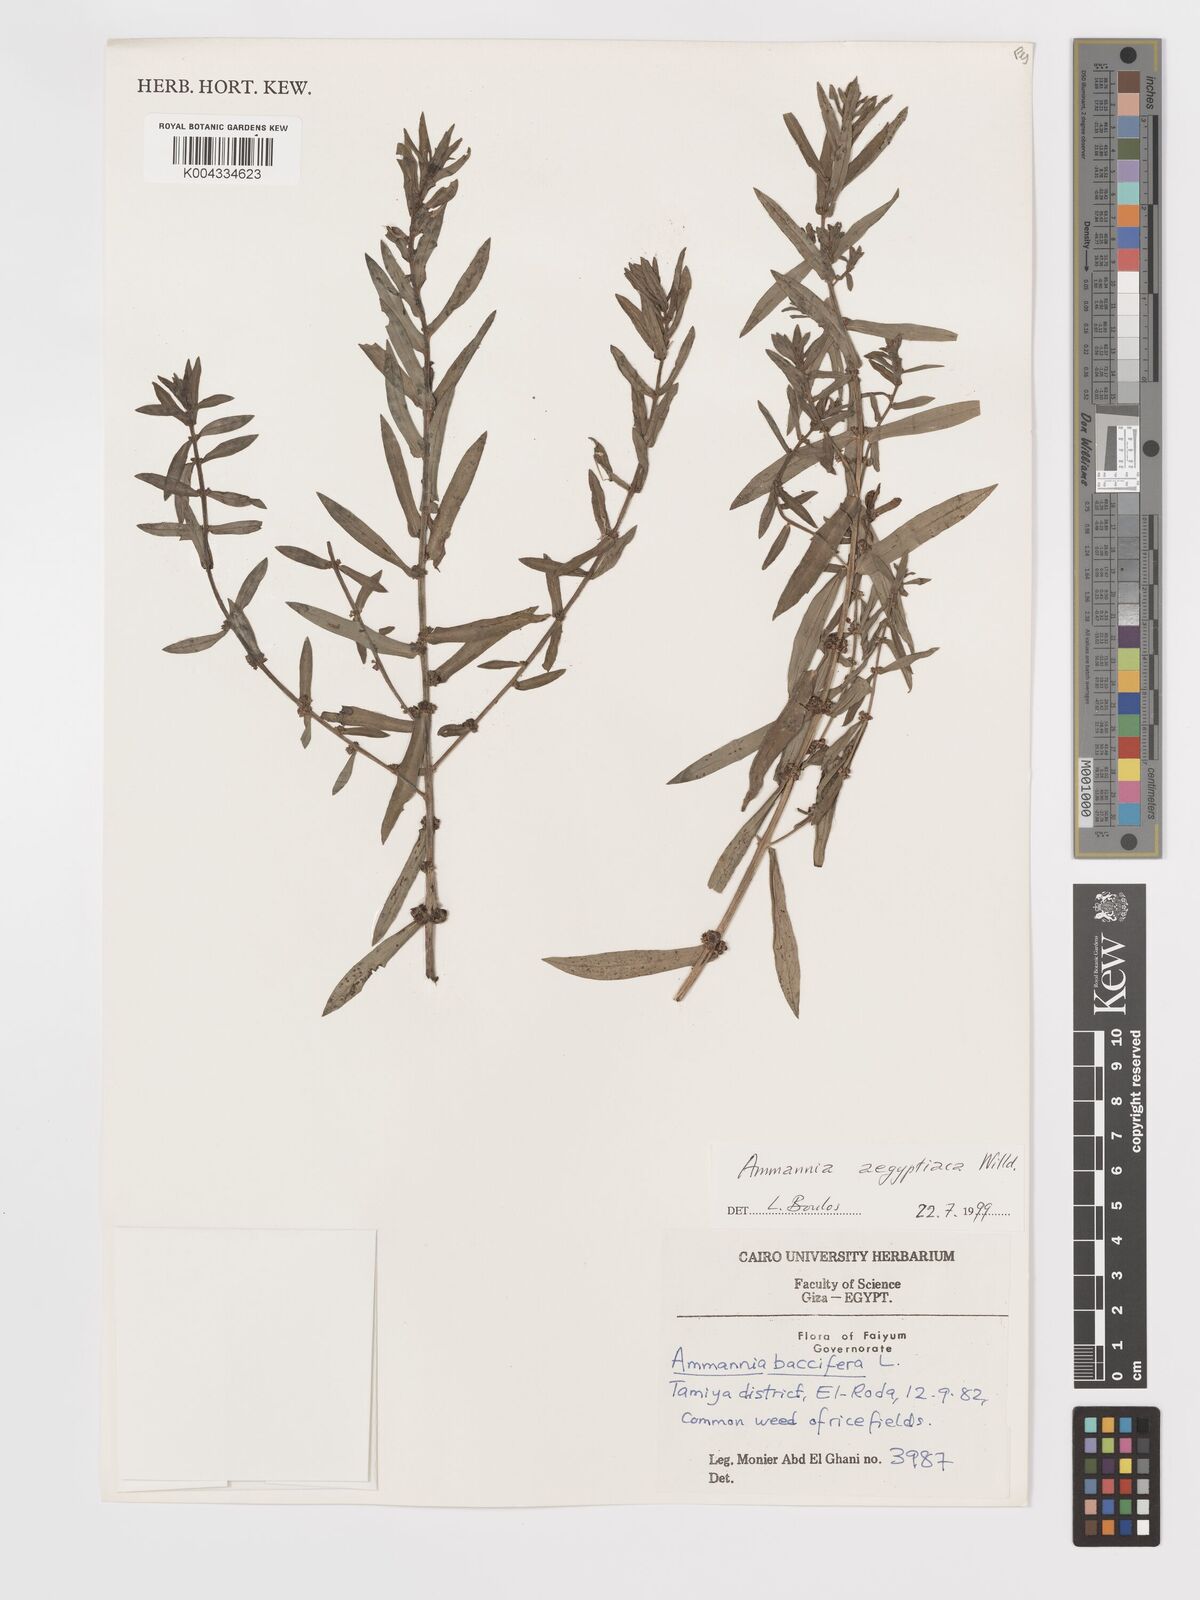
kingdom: Plantae
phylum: Tracheophyta
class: Magnoliopsida
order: Myrtales
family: Lythraceae
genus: Ammannia
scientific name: Ammannia
